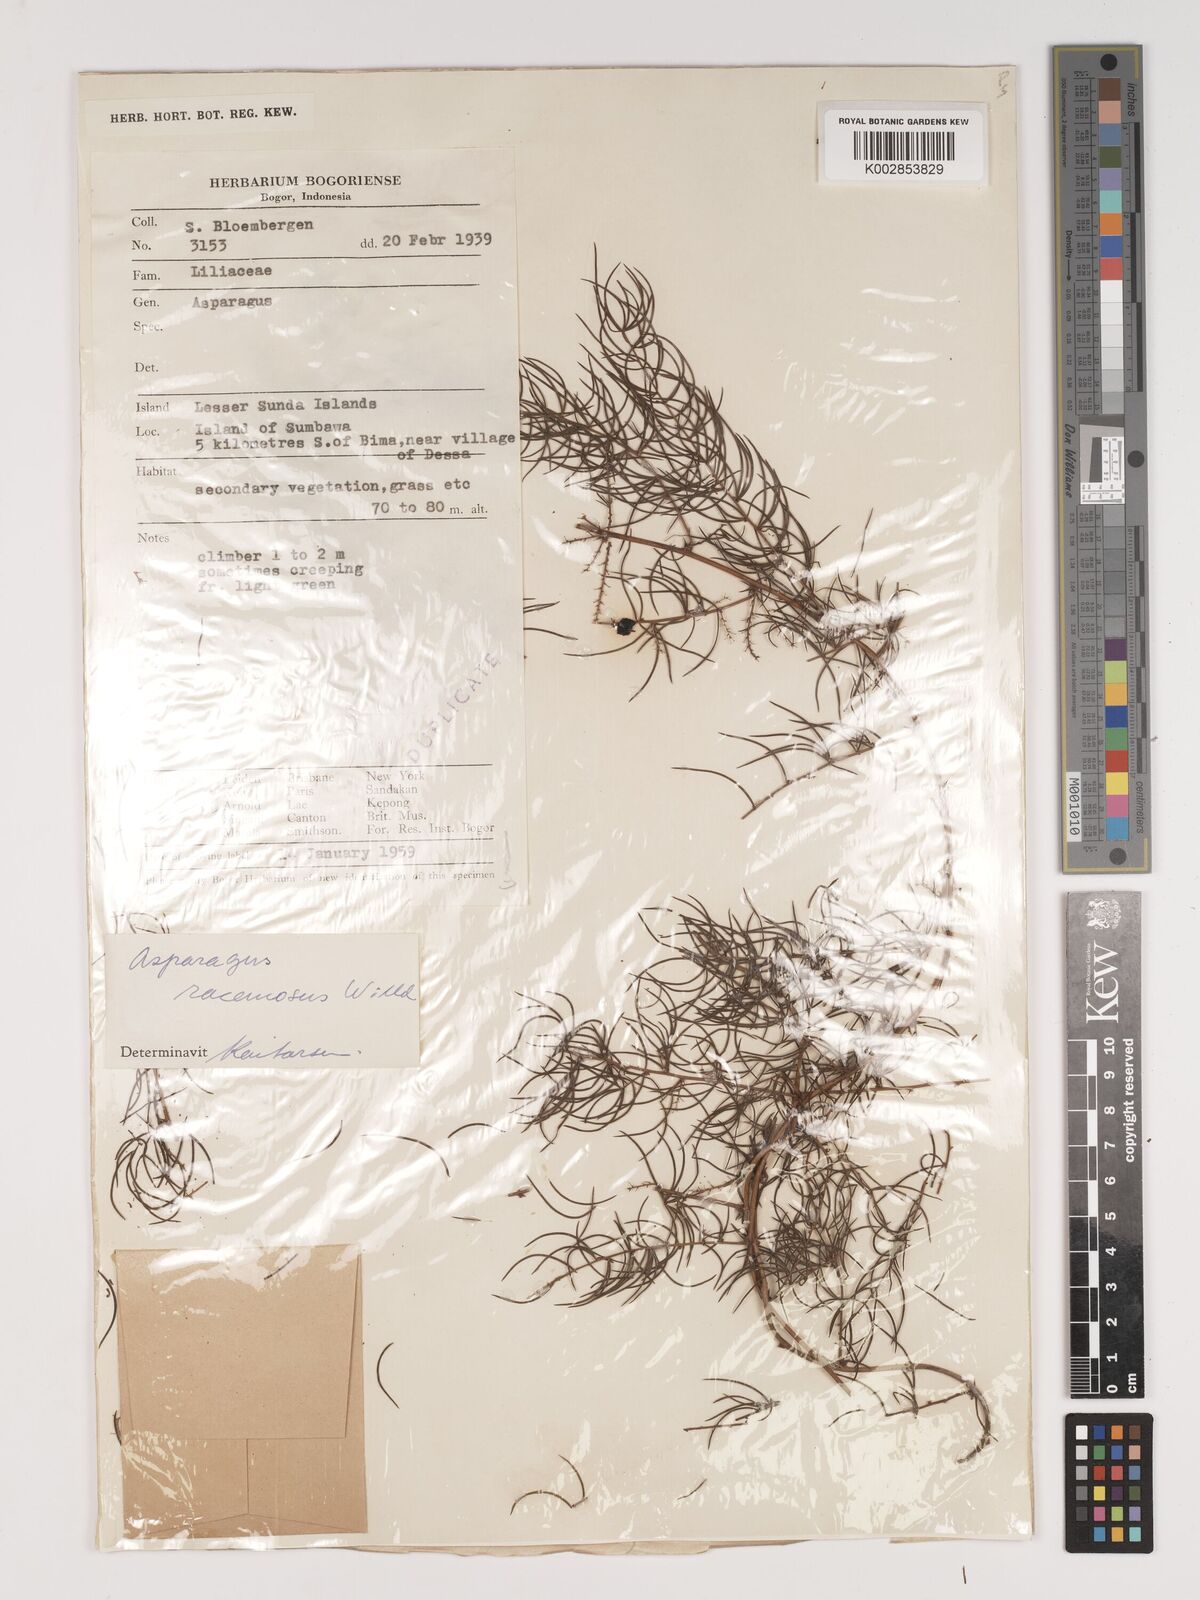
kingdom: Plantae
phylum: Tracheophyta
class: Liliopsida
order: Asparagales
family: Asparagaceae
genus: Asparagus
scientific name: Asparagus racemosus
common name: Asparagus-fern
